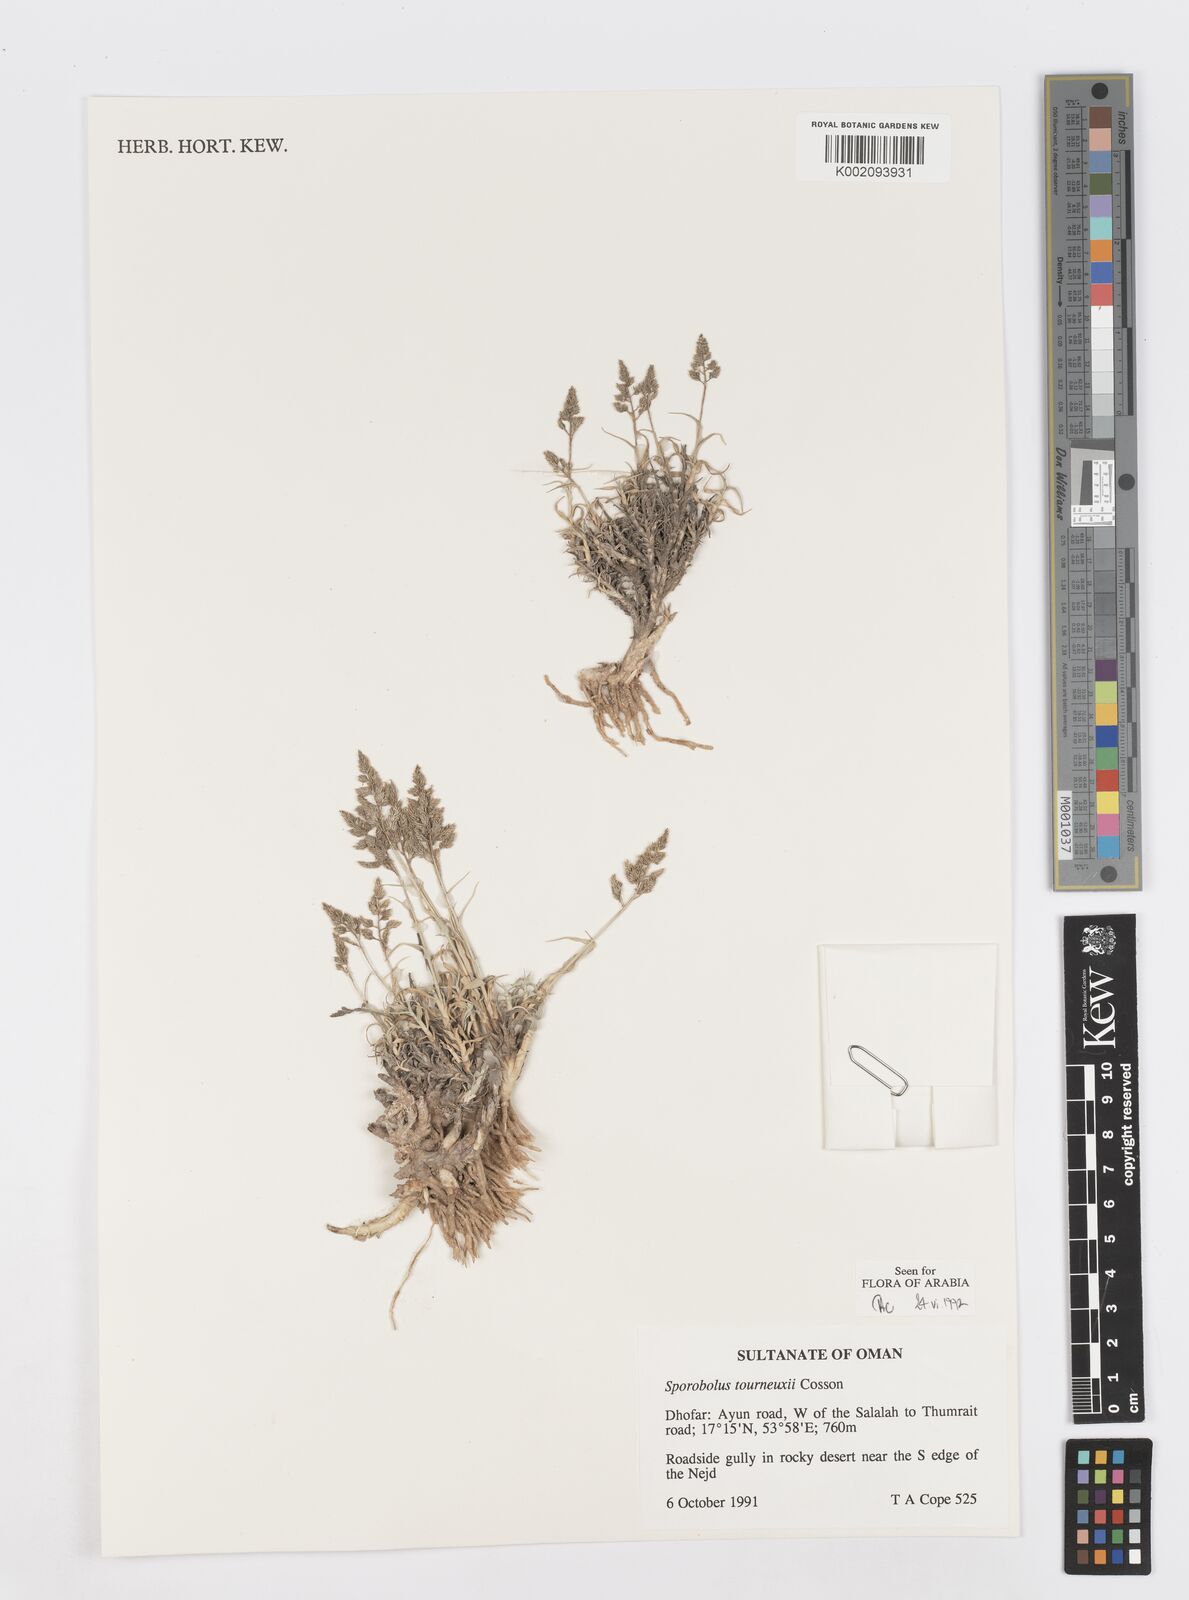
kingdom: Plantae
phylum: Tracheophyta
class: Liliopsida
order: Poales
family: Poaceae
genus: Sporobolus
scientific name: Sporobolus tourneuxii
